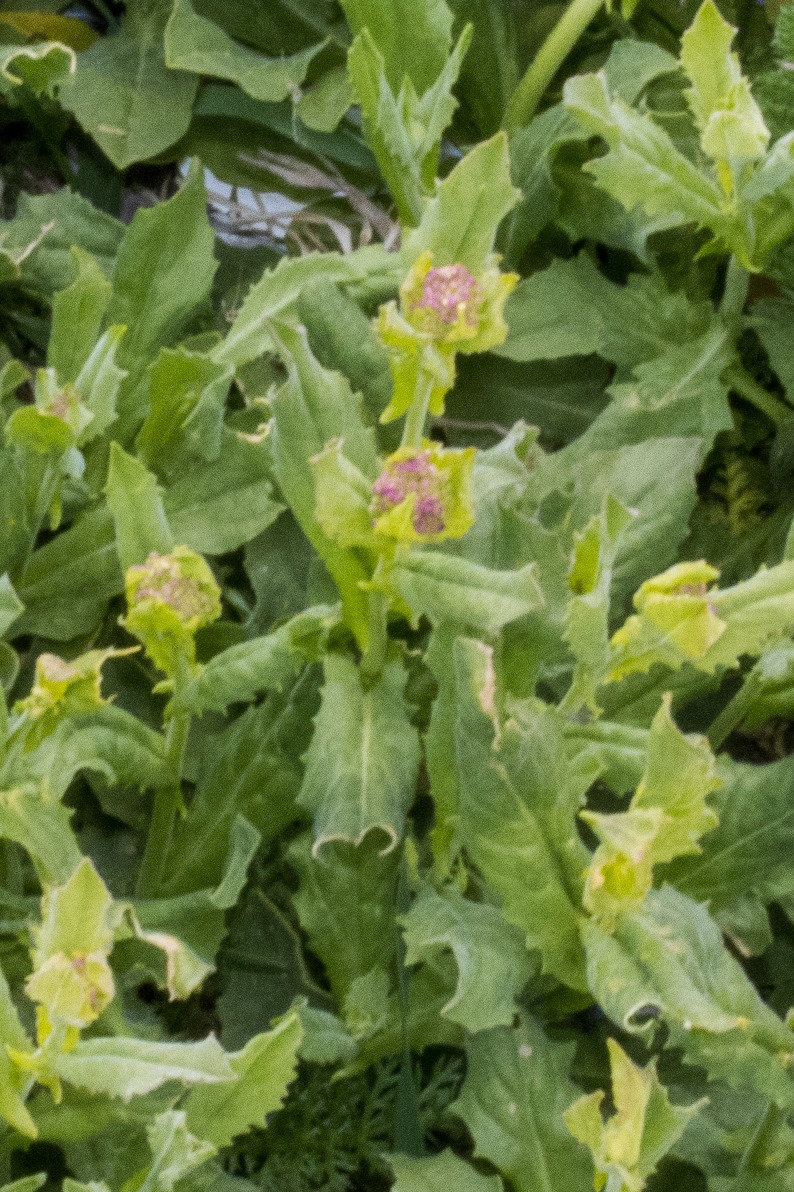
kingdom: Plantae
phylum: Tracheophyta
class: Magnoliopsida
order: Brassicales
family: Brassicaceae
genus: Lepidium
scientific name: Lepidium draba
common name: Hjerte-karse
